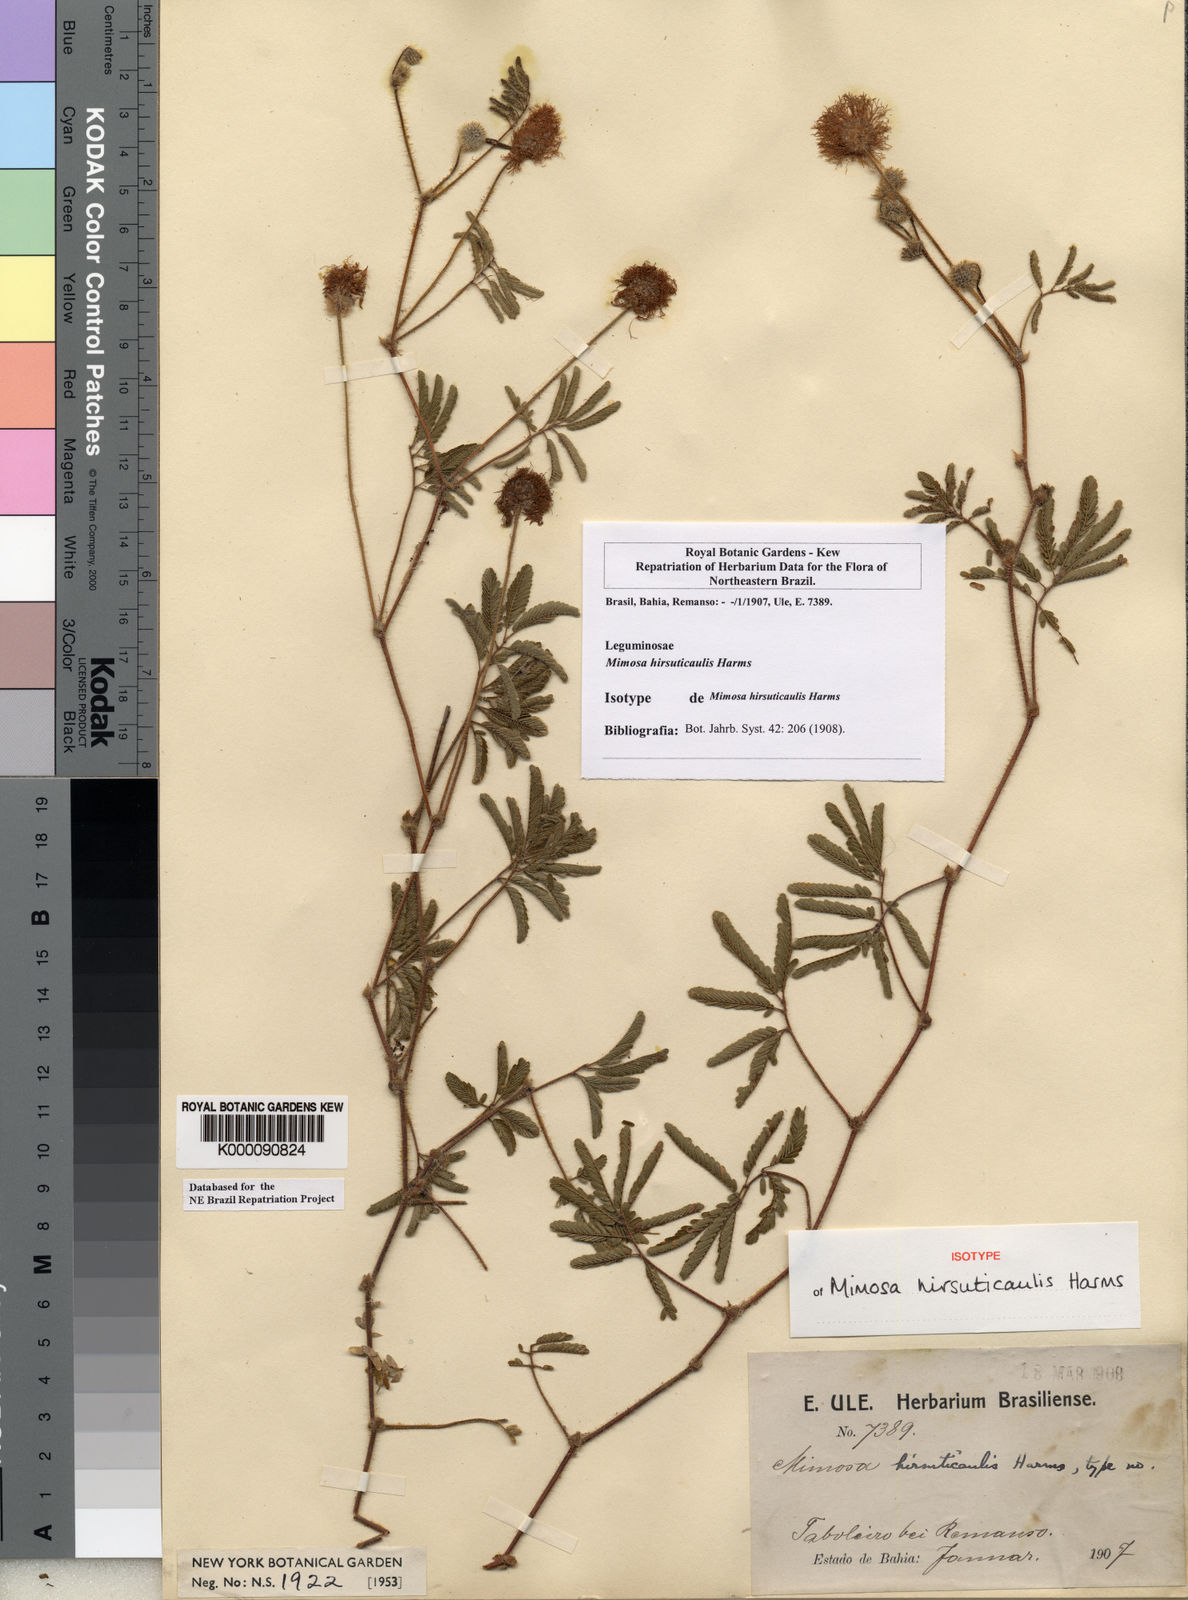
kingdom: Plantae
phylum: Tracheophyta
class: Magnoliopsida
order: Fabales
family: Fabaceae
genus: Mimosa
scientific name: Mimosa hirsuticaulis
